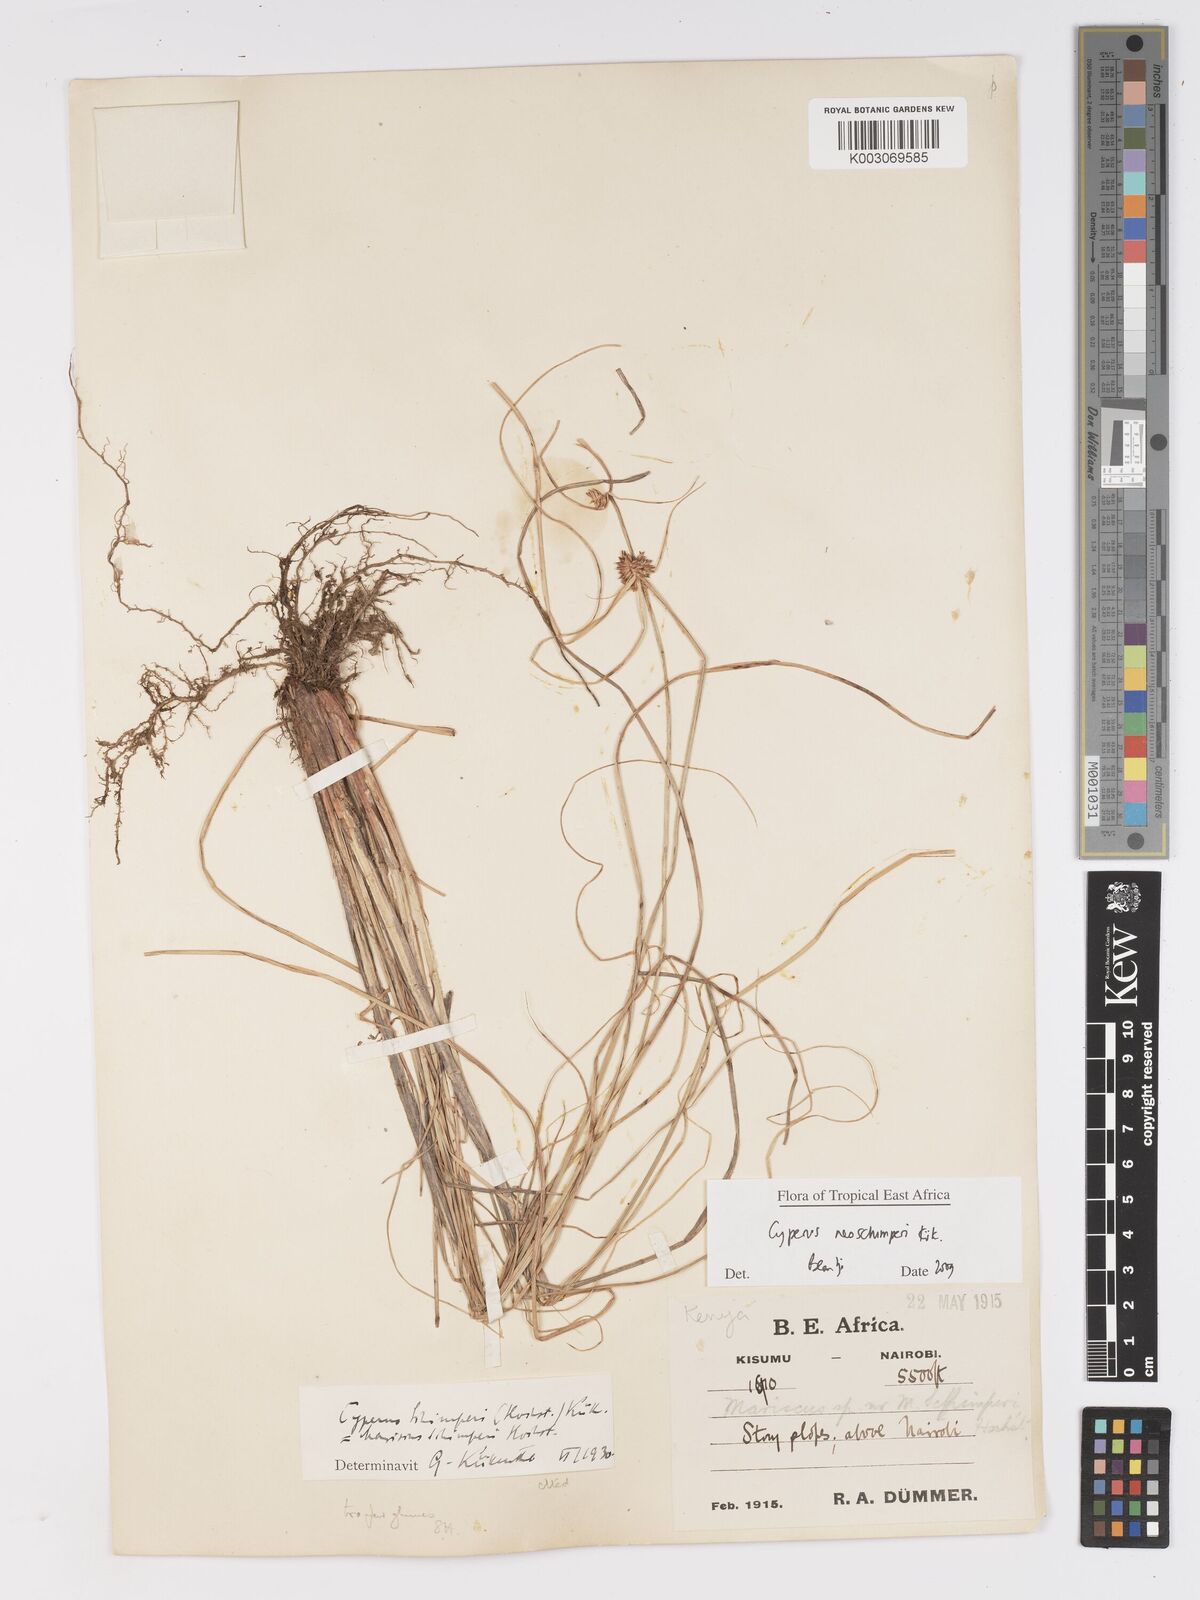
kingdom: Plantae
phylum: Tracheophyta
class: Liliopsida
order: Poales
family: Cyperaceae
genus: Cyperus
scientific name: Cyperus cruentus
